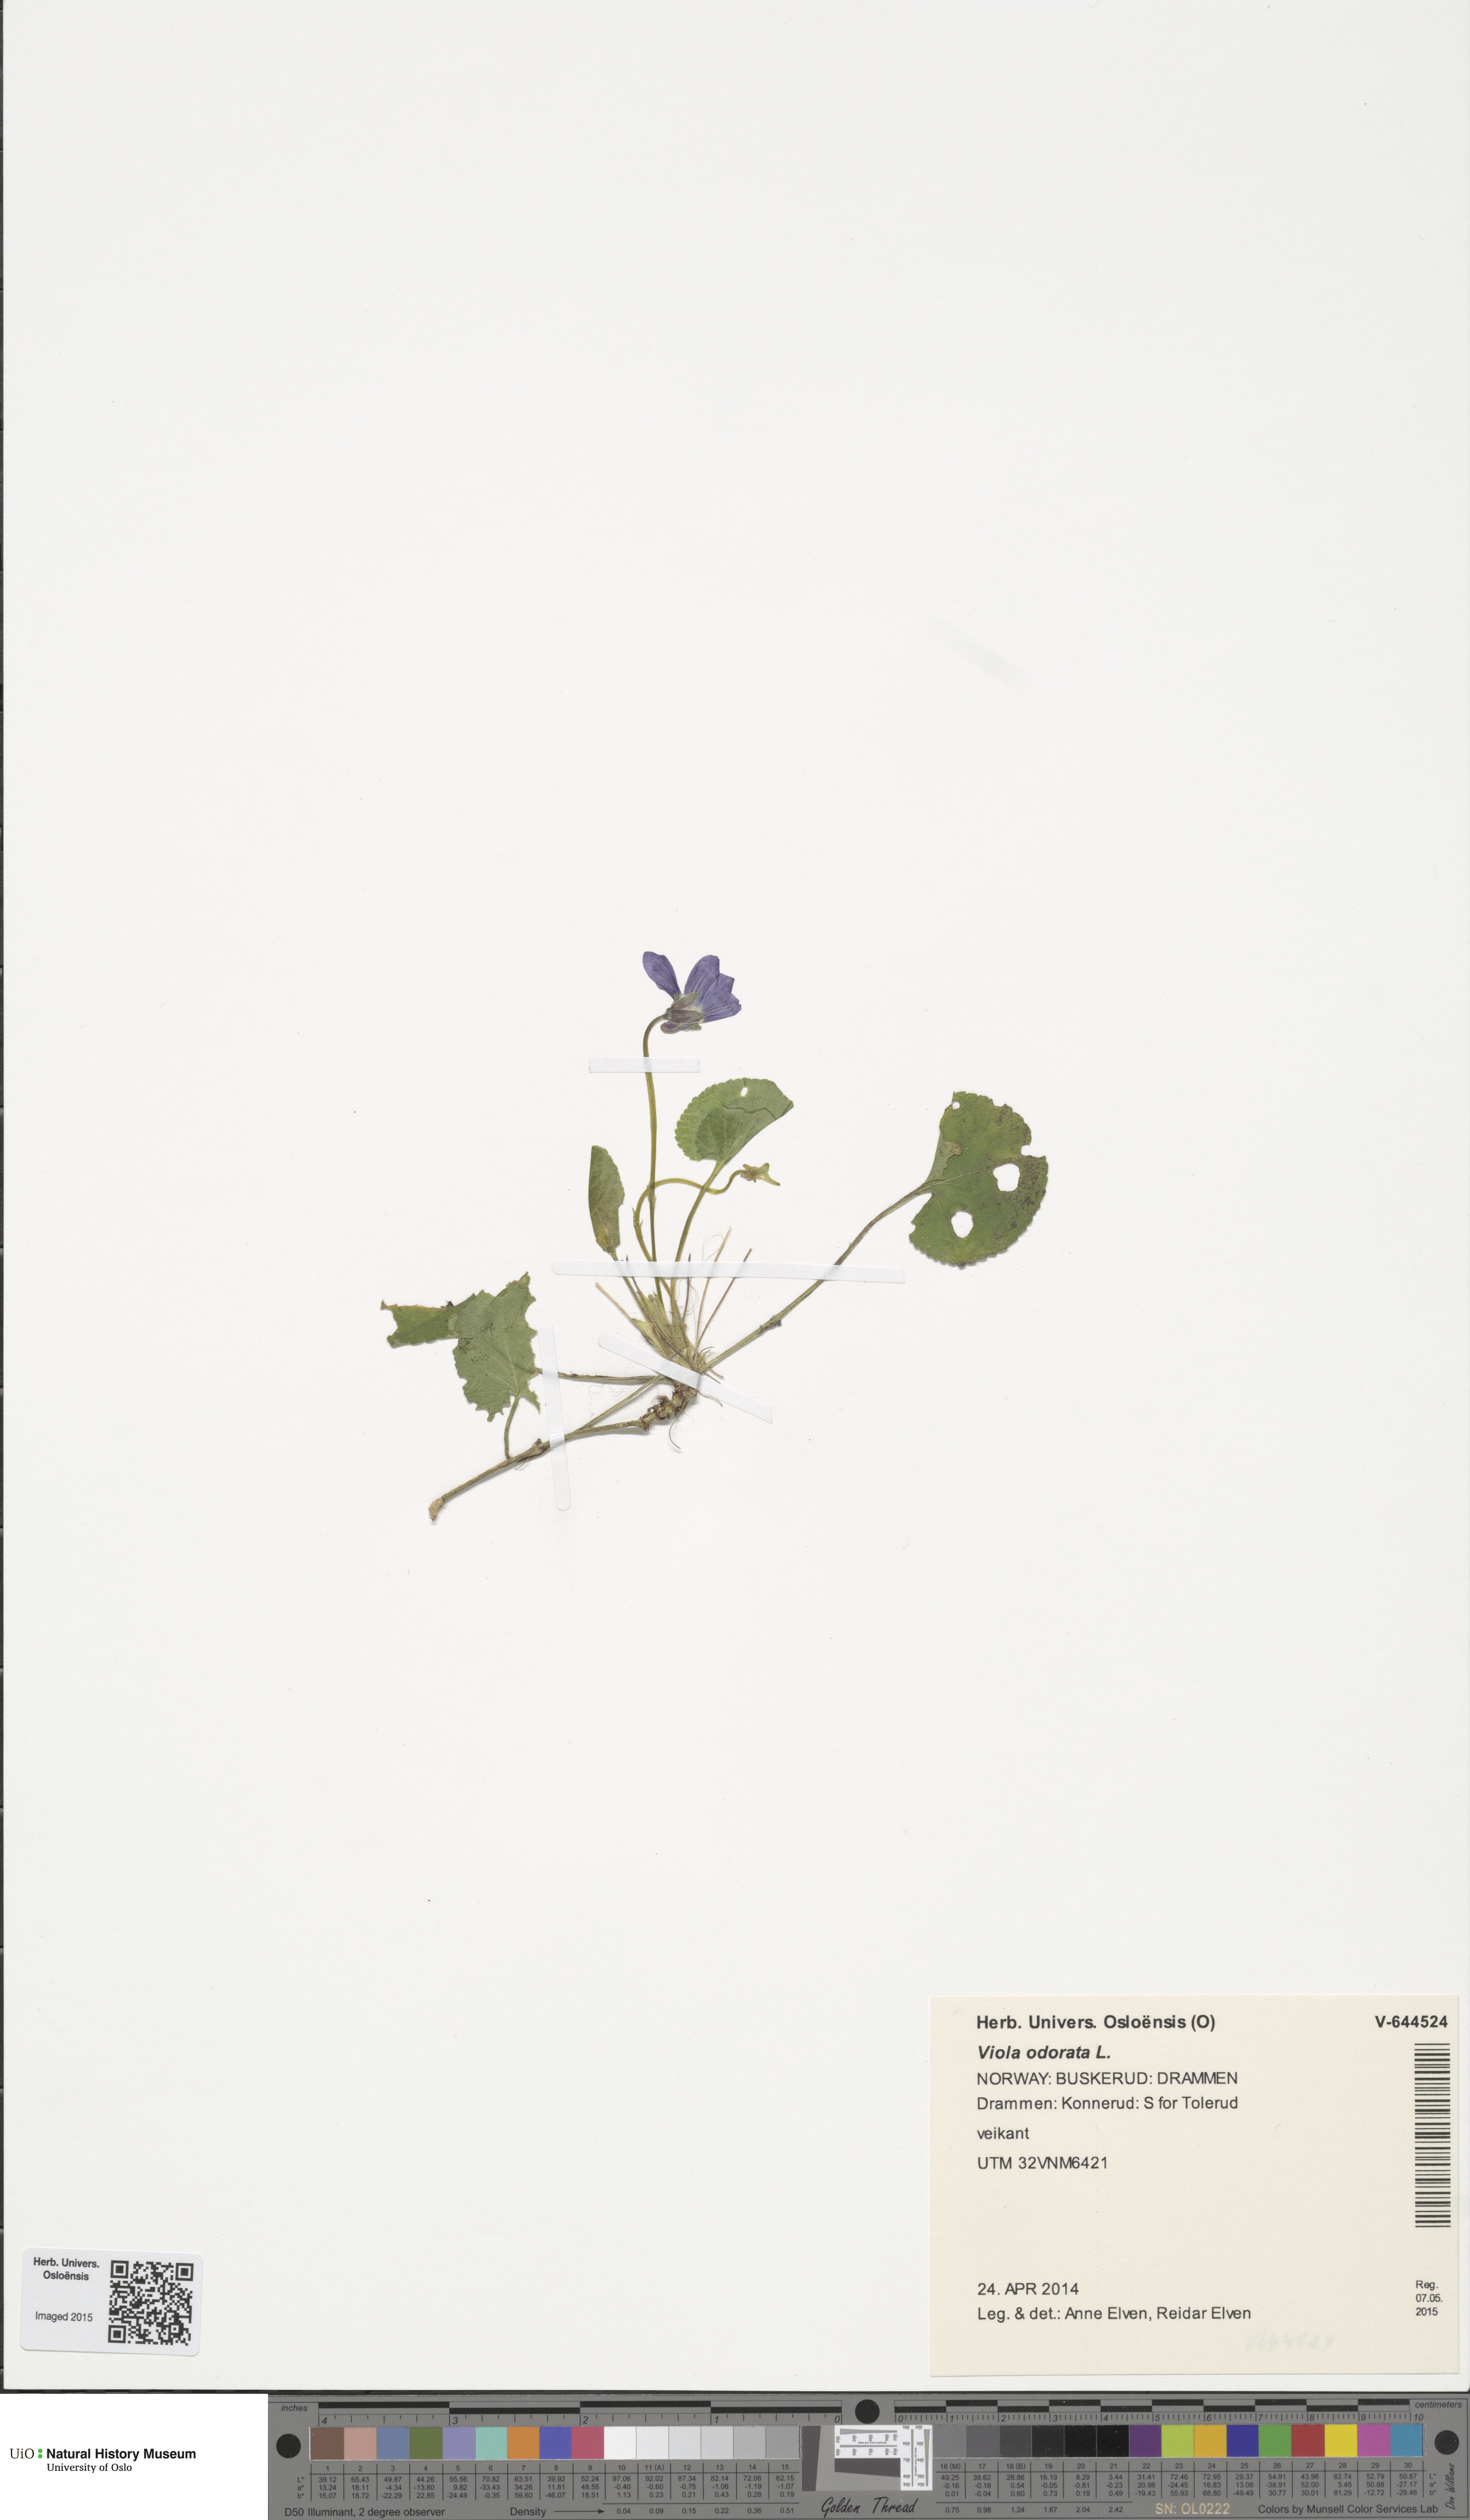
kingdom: Plantae
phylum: Tracheophyta
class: Magnoliopsida
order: Malpighiales
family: Violaceae
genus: Viola
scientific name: Viola odorata
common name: Sweet violet
